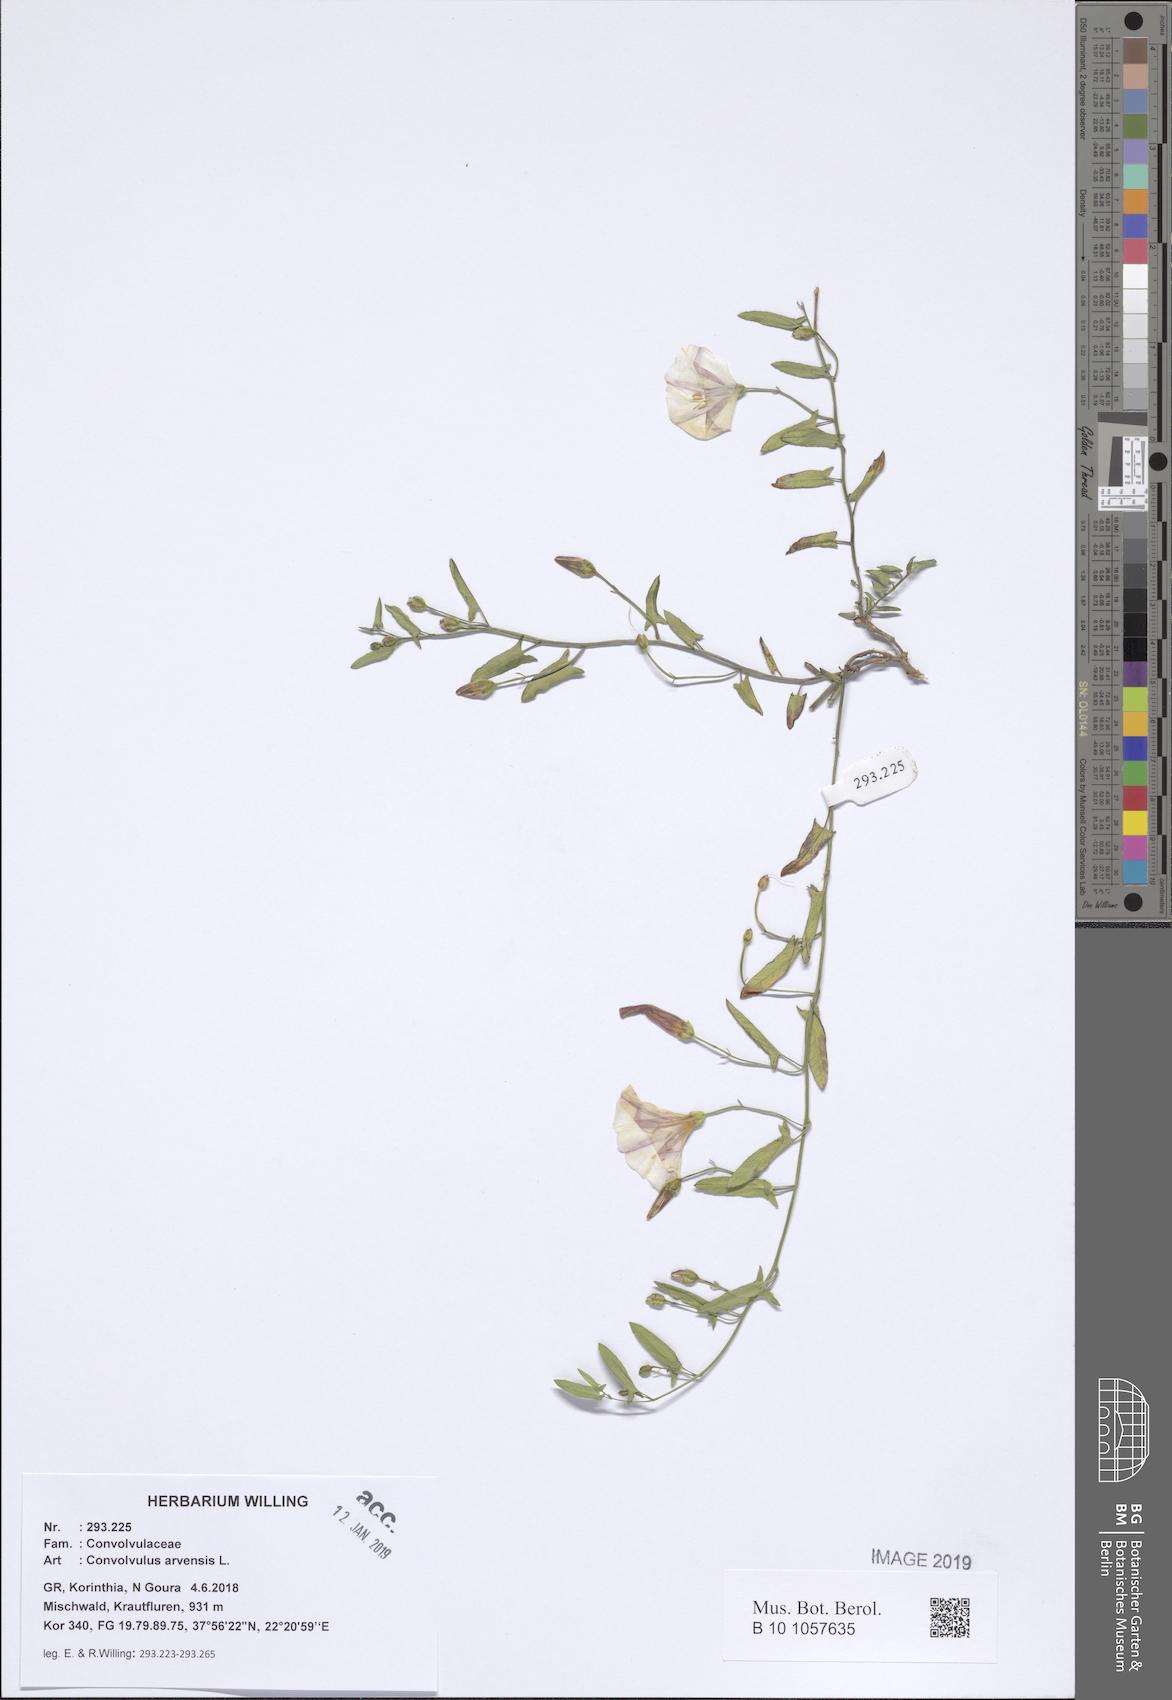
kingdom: Plantae
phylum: Tracheophyta
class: Magnoliopsida
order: Solanales
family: Convolvulaceae
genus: Convolvulus
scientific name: Convolvulus arvensis
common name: Field bindweed
